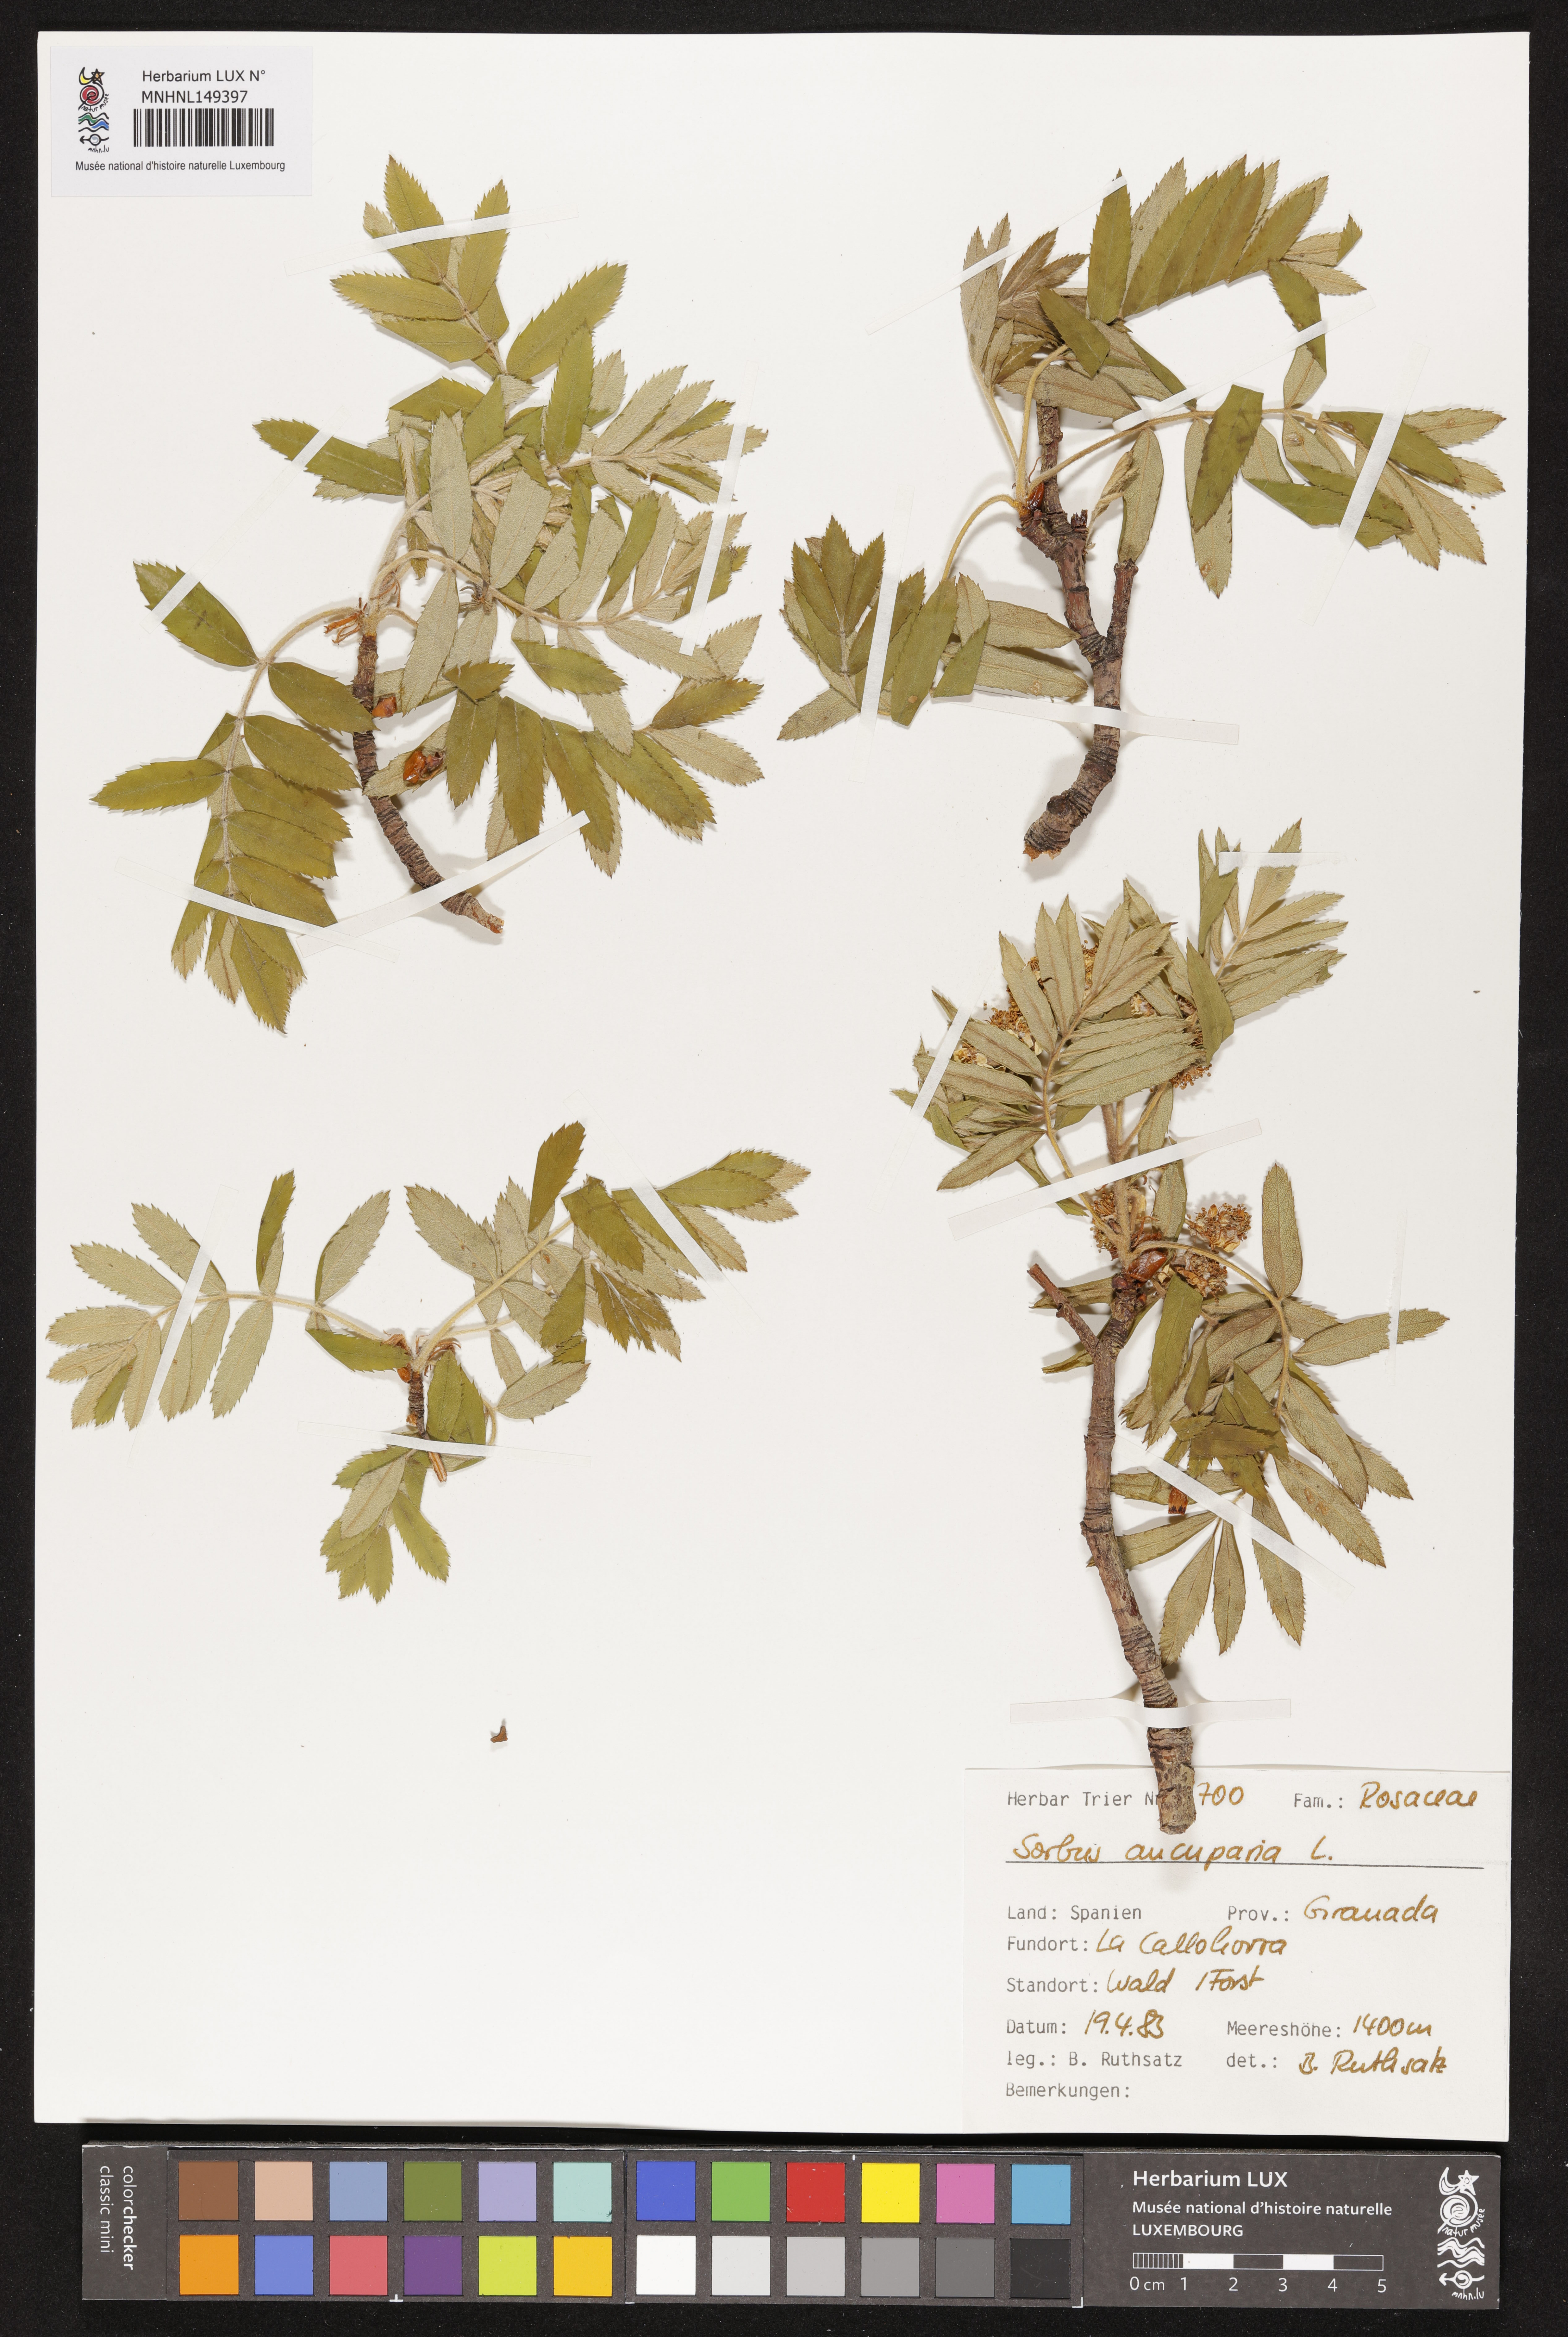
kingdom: Plantae
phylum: Tracheophyta
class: Magnoliopsida
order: Rosales
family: Rosaceae
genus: Sorbus
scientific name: Sorbus aucuparia
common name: Rowan
